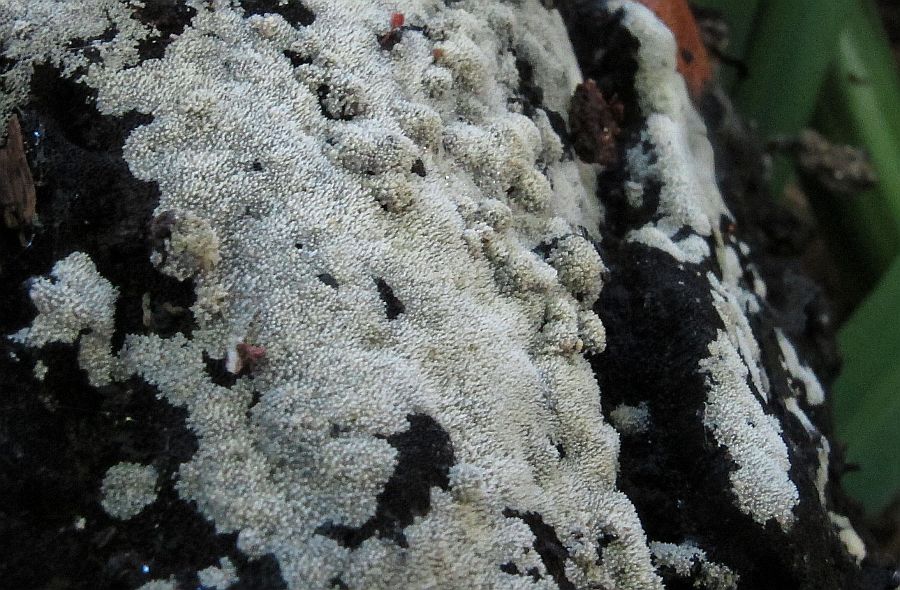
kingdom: Fungi
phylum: Basidiomycota
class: Agaricomycetes
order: Polyporales
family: Meruliaceae
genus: Scopuloides
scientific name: Scopuloides rimosa
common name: dughinde
